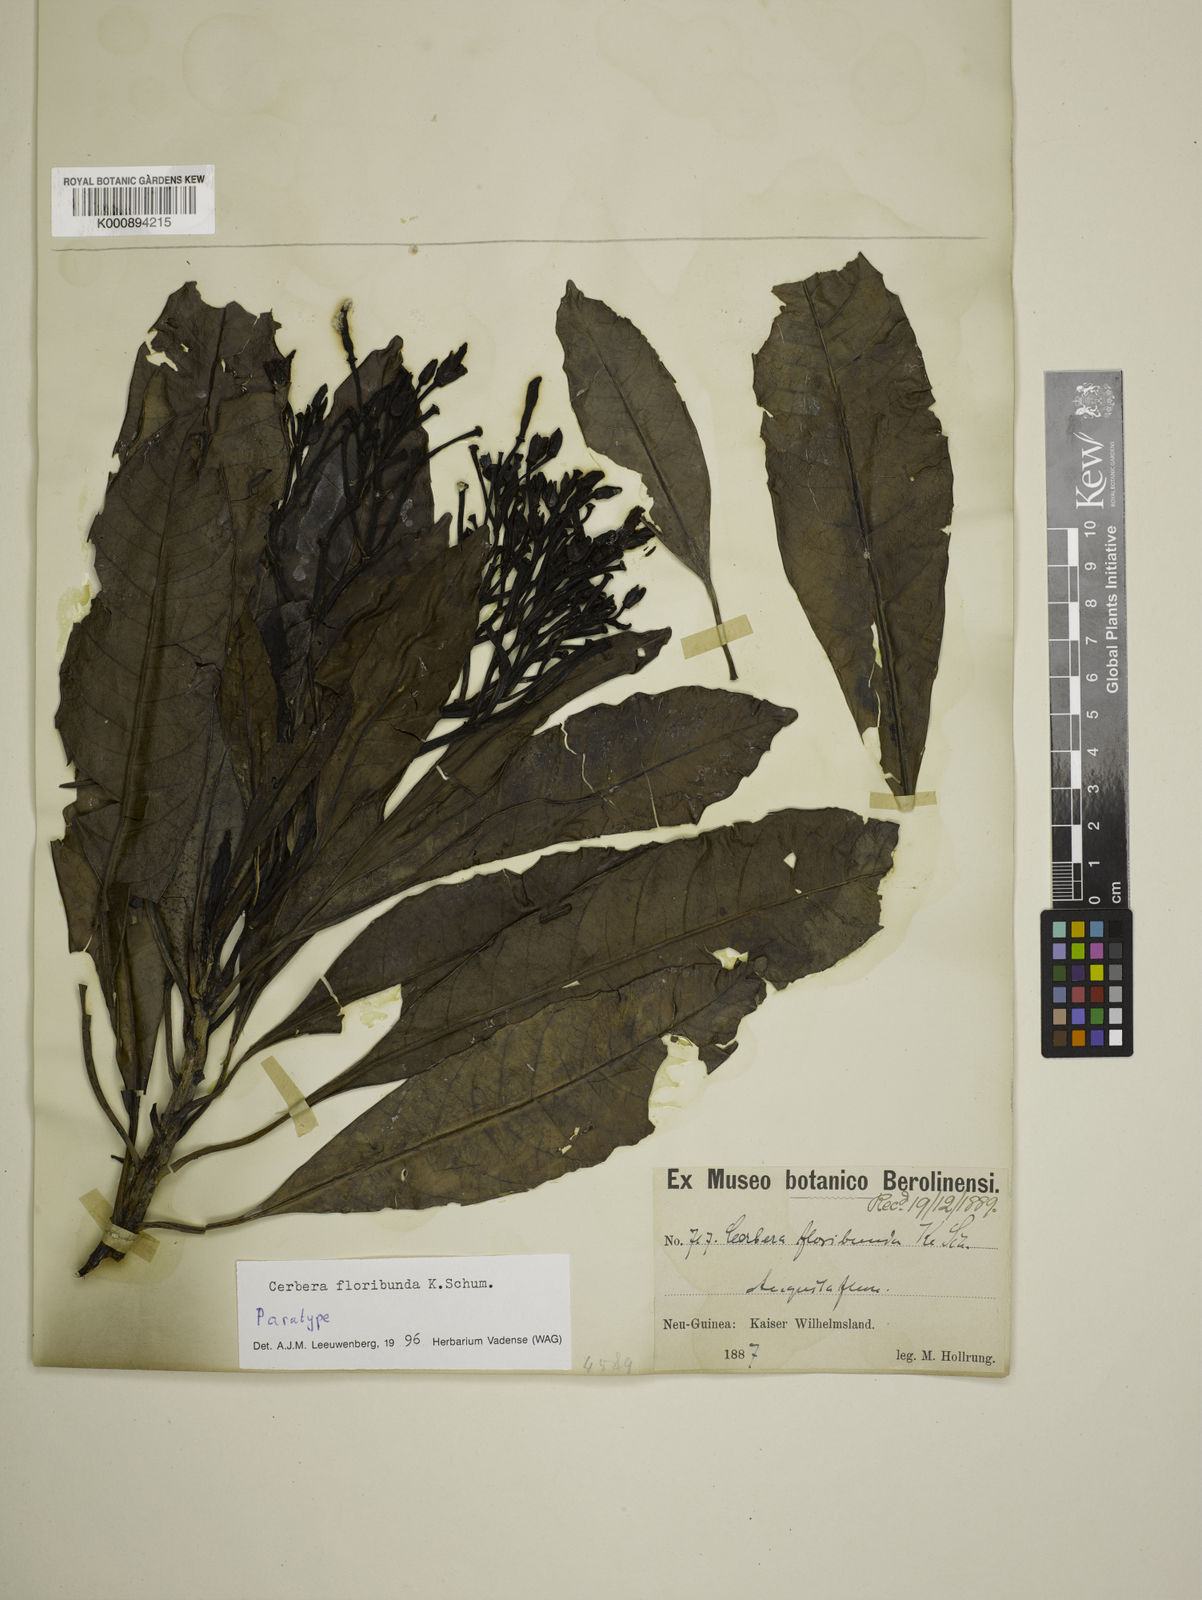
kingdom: Plantae
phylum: Tracheophyta
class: Magnoliopsida
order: Gentianales
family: Apocynaceae
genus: Cerbera
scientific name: Cerbera floribunda
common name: Cassowary plumtree
